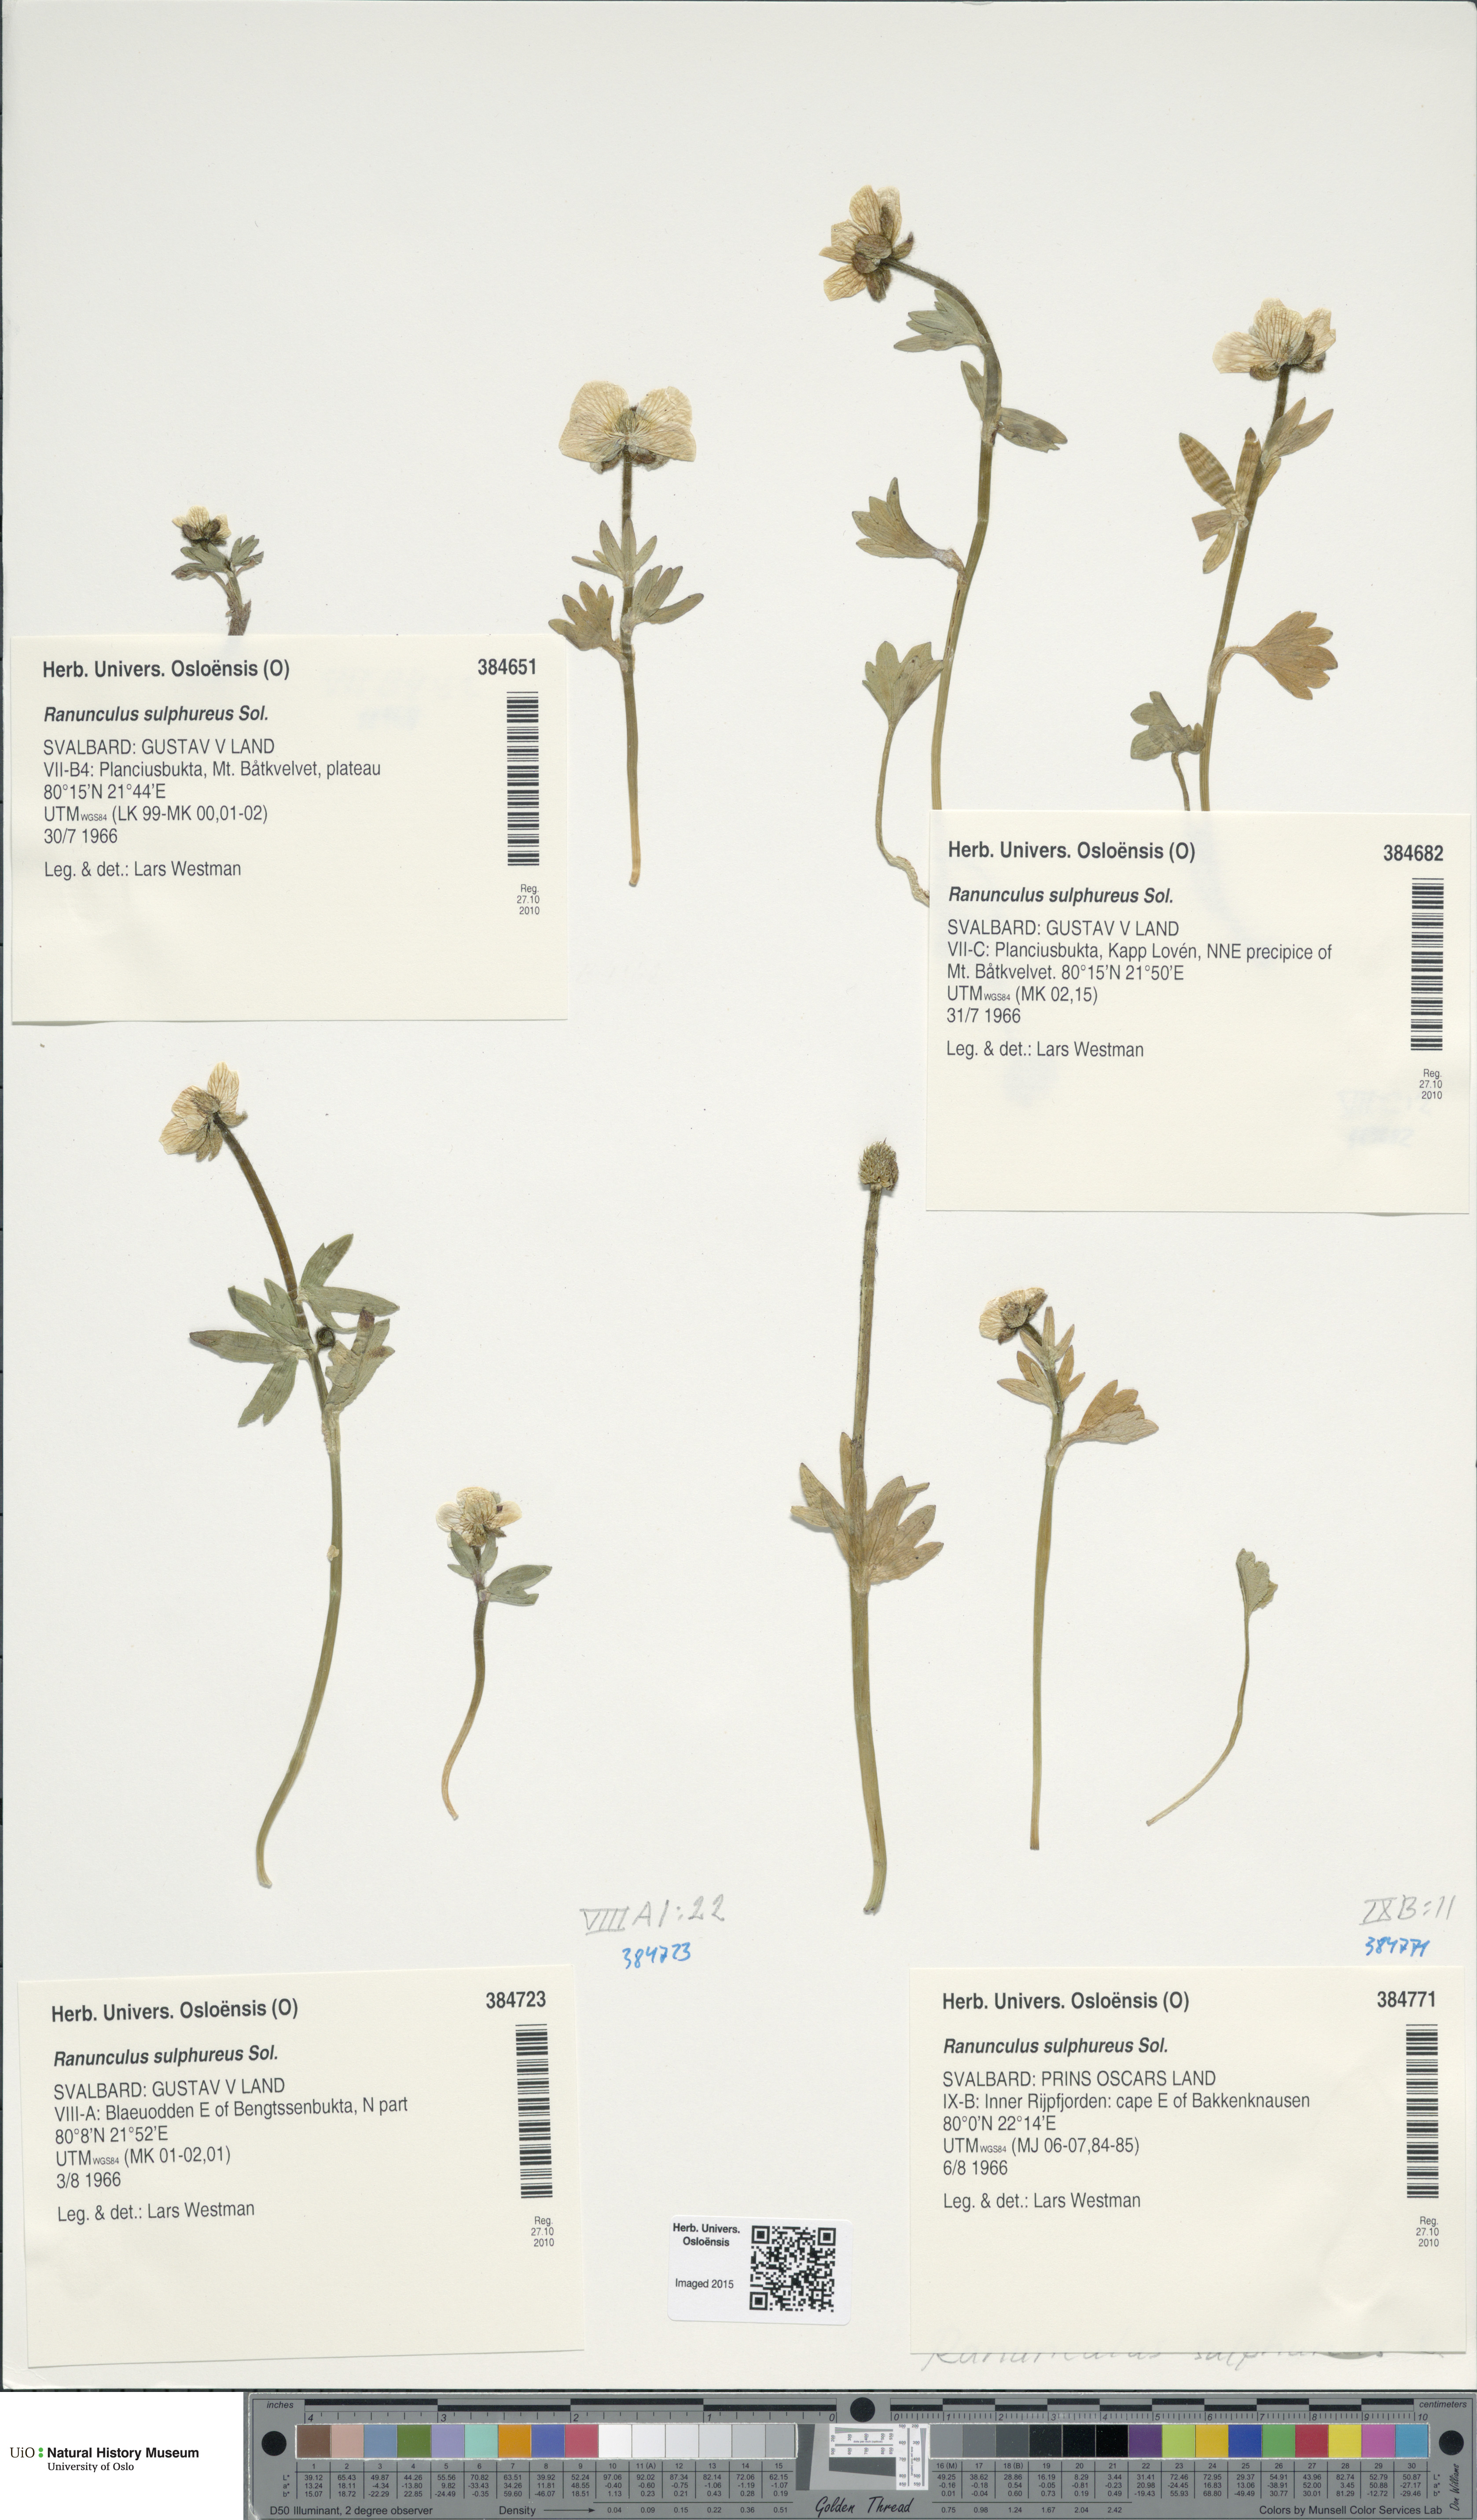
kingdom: Plantae
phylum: Tracheophyta
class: Magnoliopsida
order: Ranunculales
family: Ranunculaceae
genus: Ranunculus
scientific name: Ranunculus sulphureus
